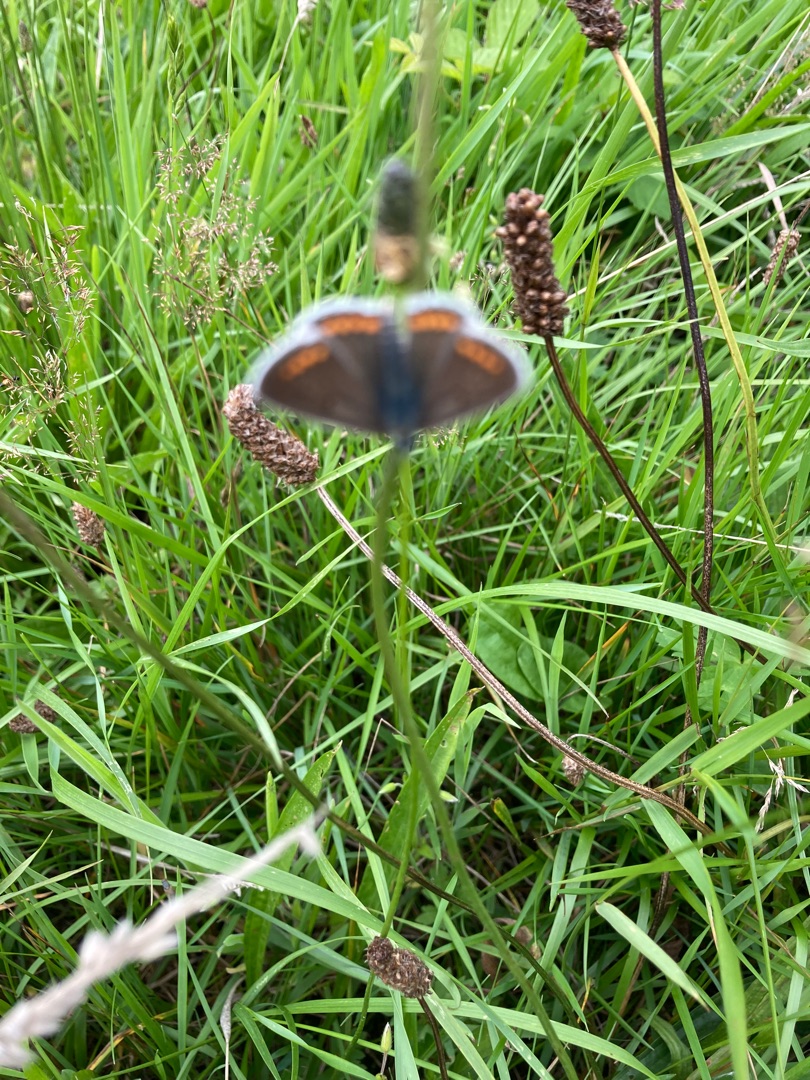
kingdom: Animalia
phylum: Arthropoda
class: Insecta
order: Lepidoptera
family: Lycaenidae
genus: Aricia
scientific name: Aricia agestis
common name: Rødplettet blåfugl
